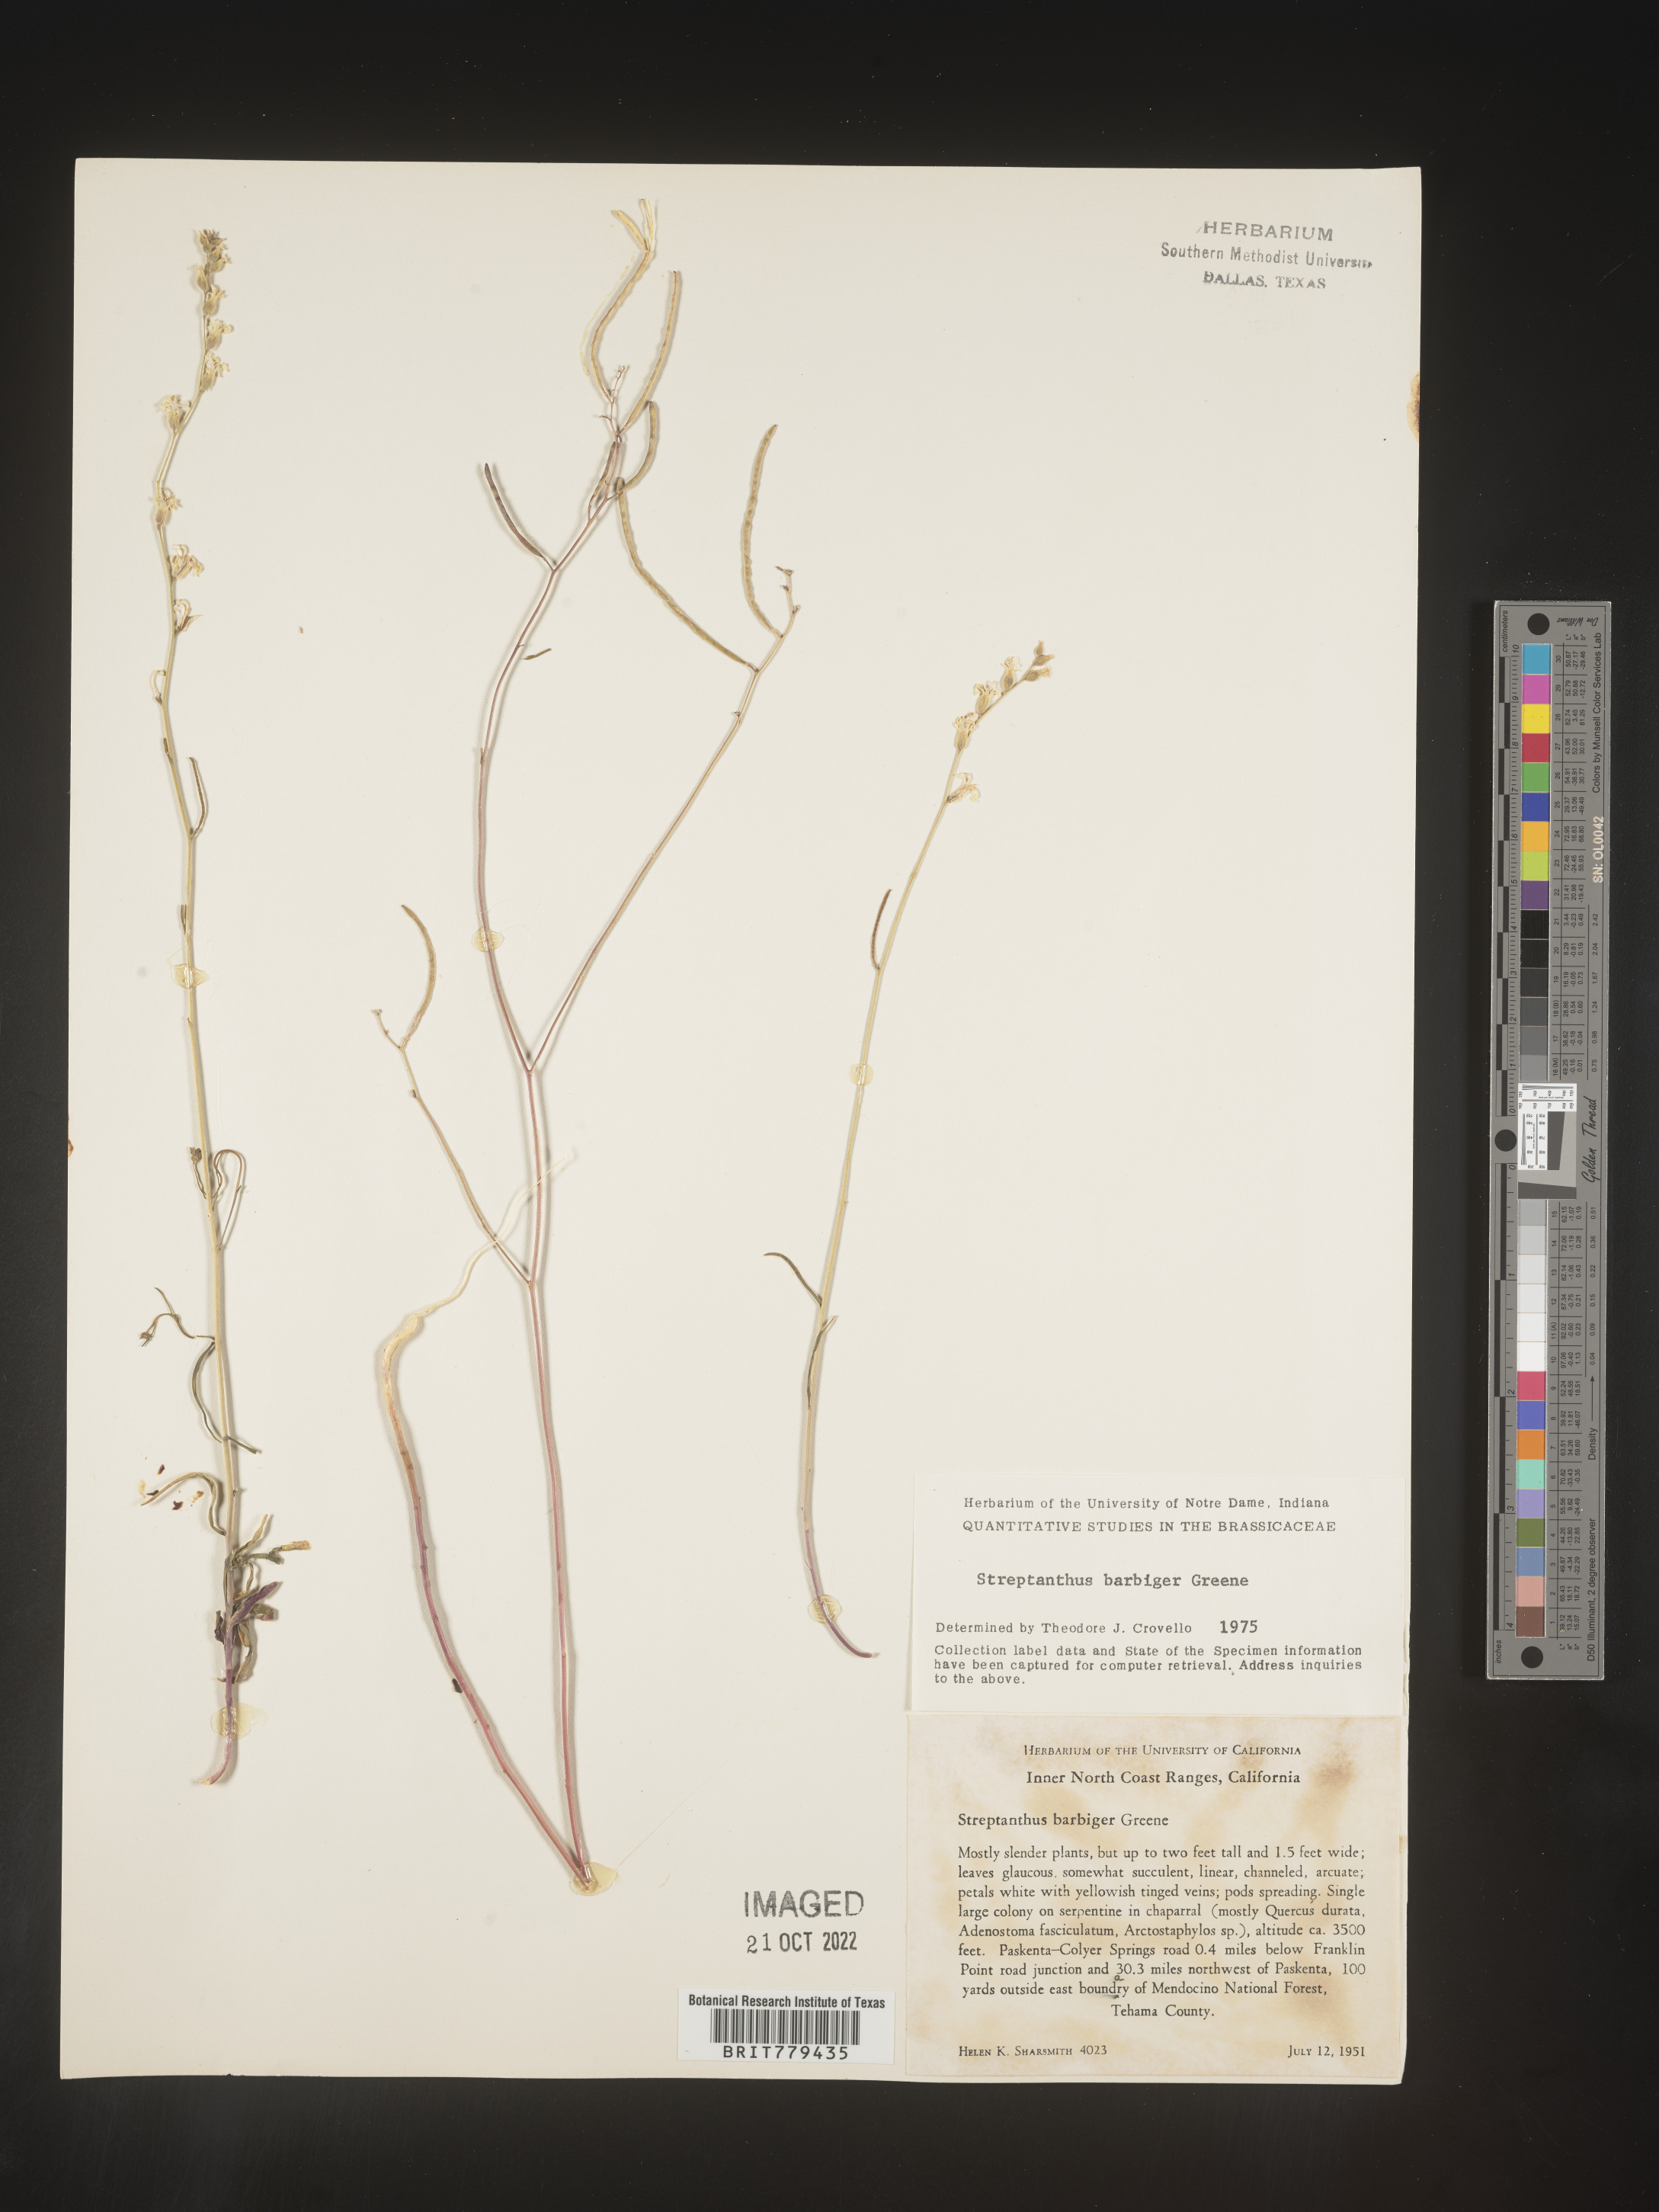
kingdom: Plantae
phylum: Tracheophyta
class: Magnoliopsida
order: Brassicales
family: Brassicaceae
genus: Streptanthus
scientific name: Streptanthus
